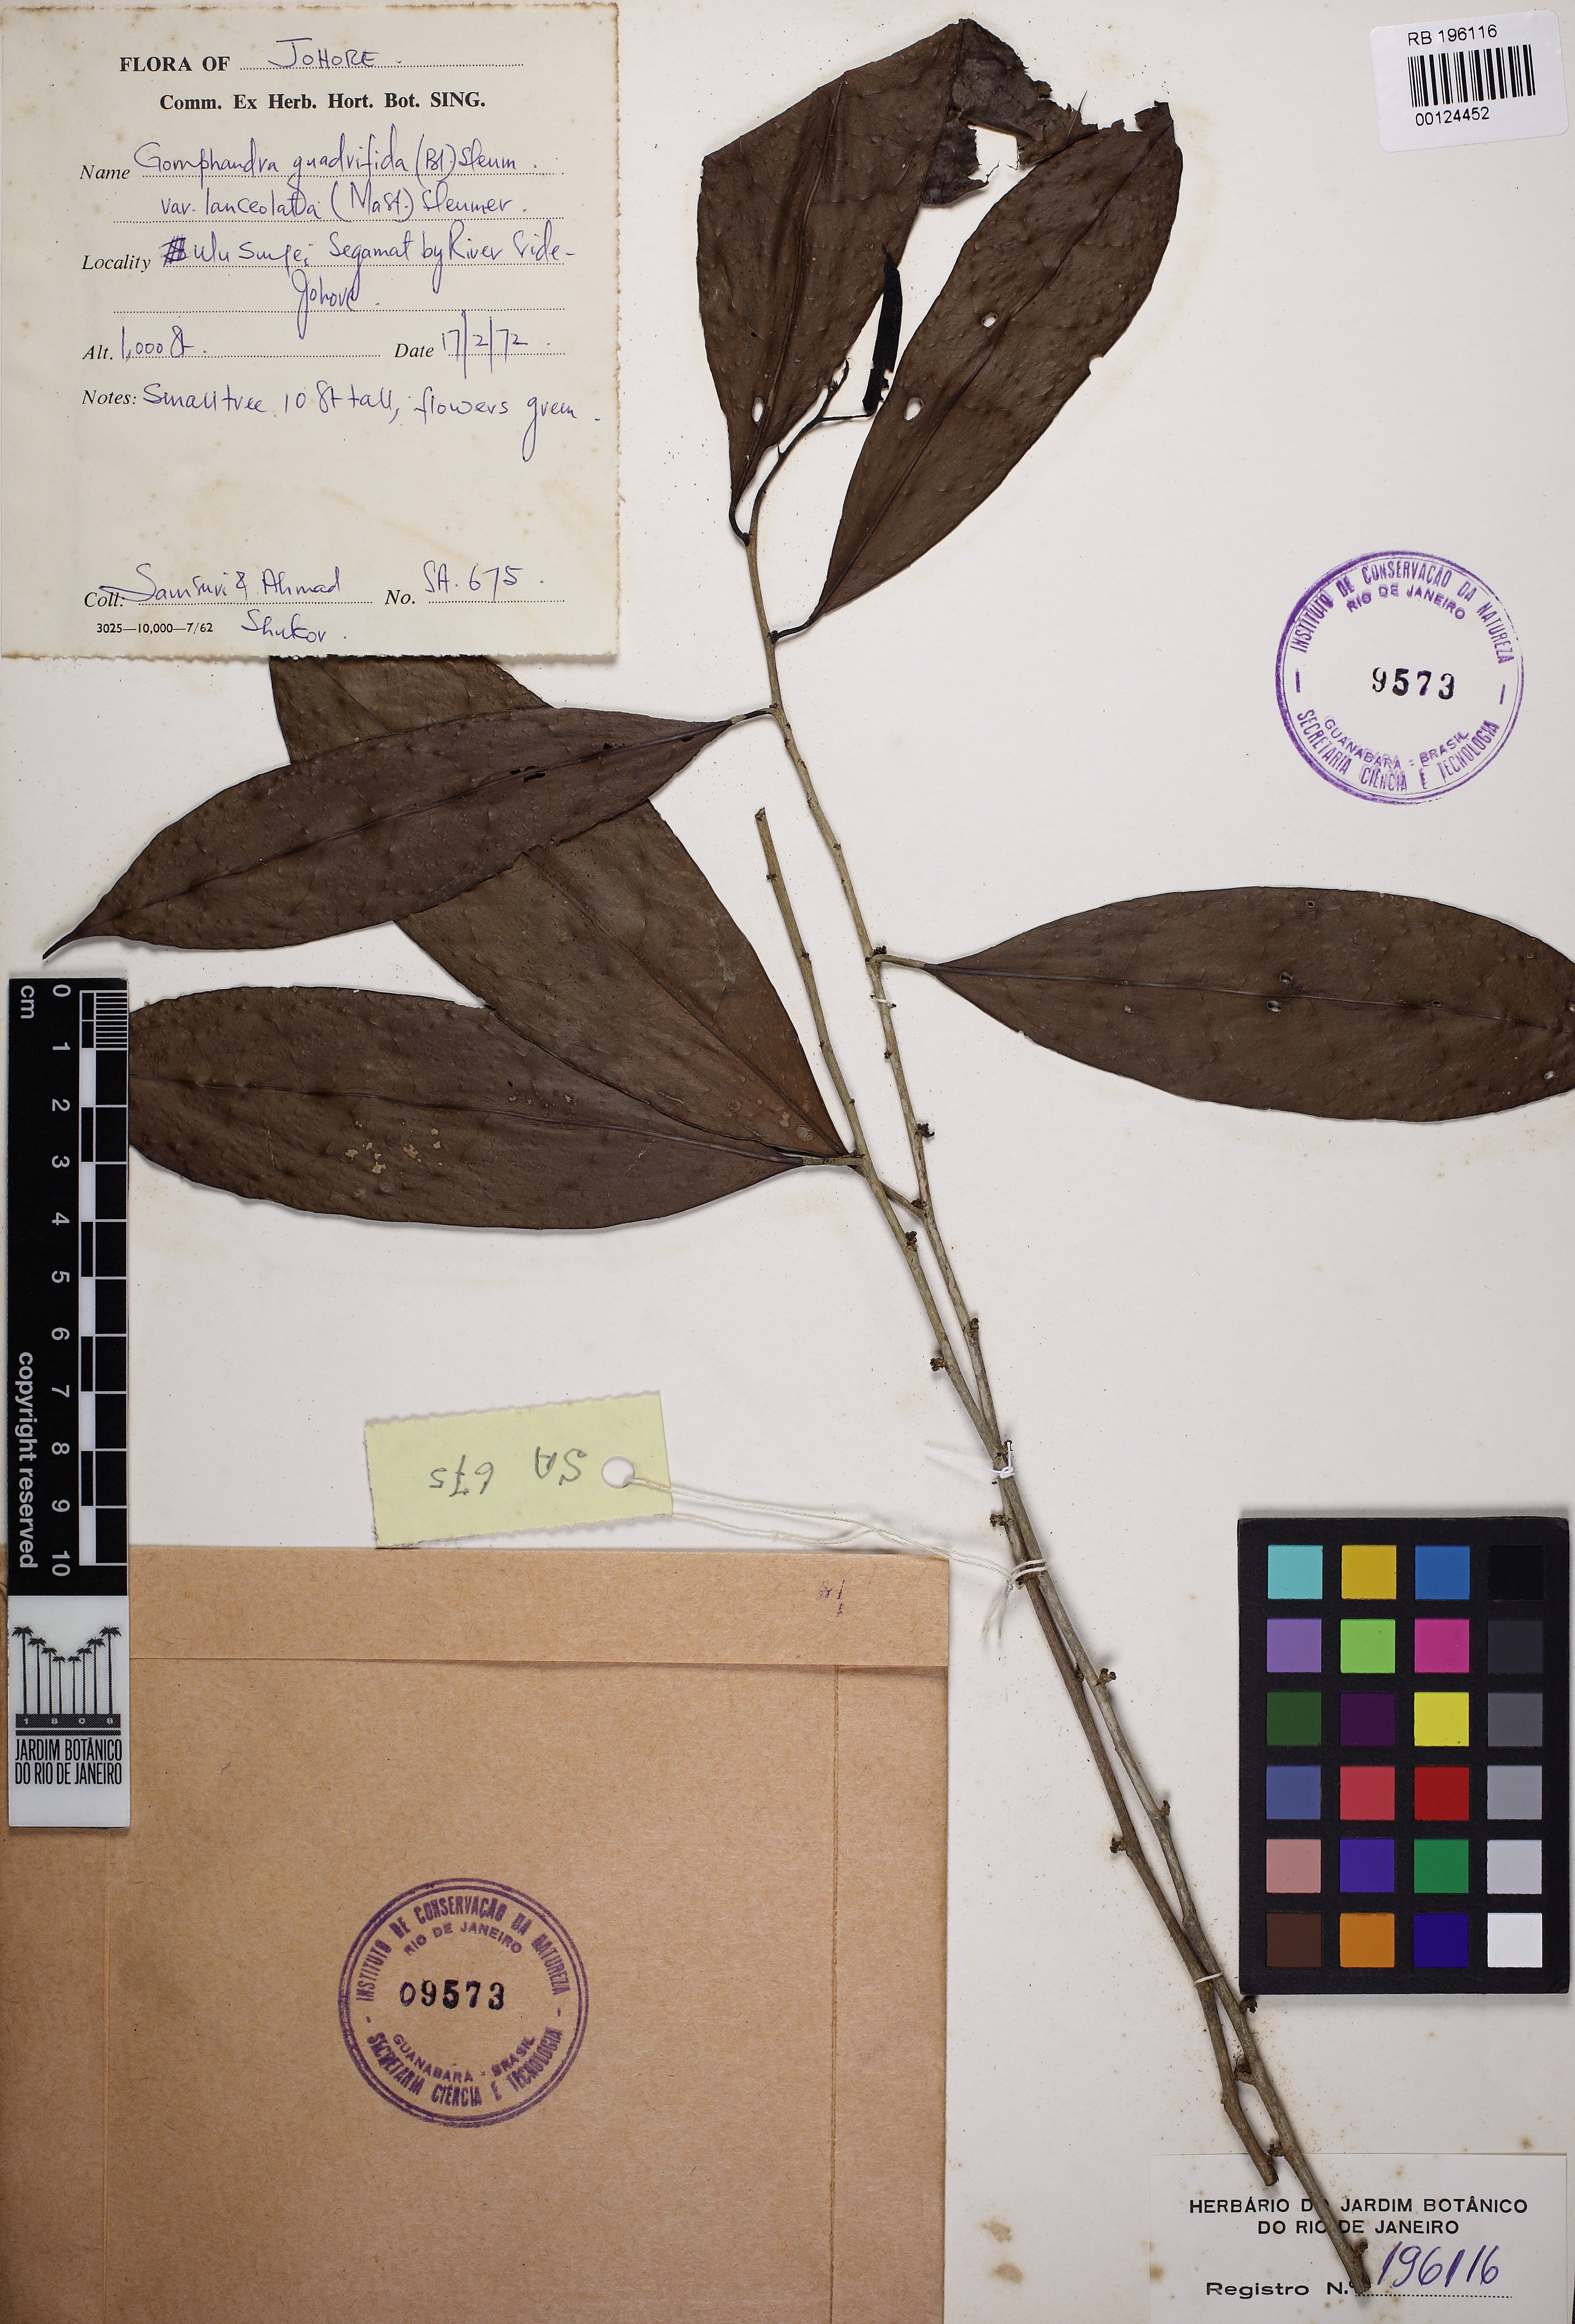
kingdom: Plantae
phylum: Tracheophyta
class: Magnoliopsida
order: Cardiopteridales
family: Stemonuraceae
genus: Gomphandra
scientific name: Gomphandra quadrifida
